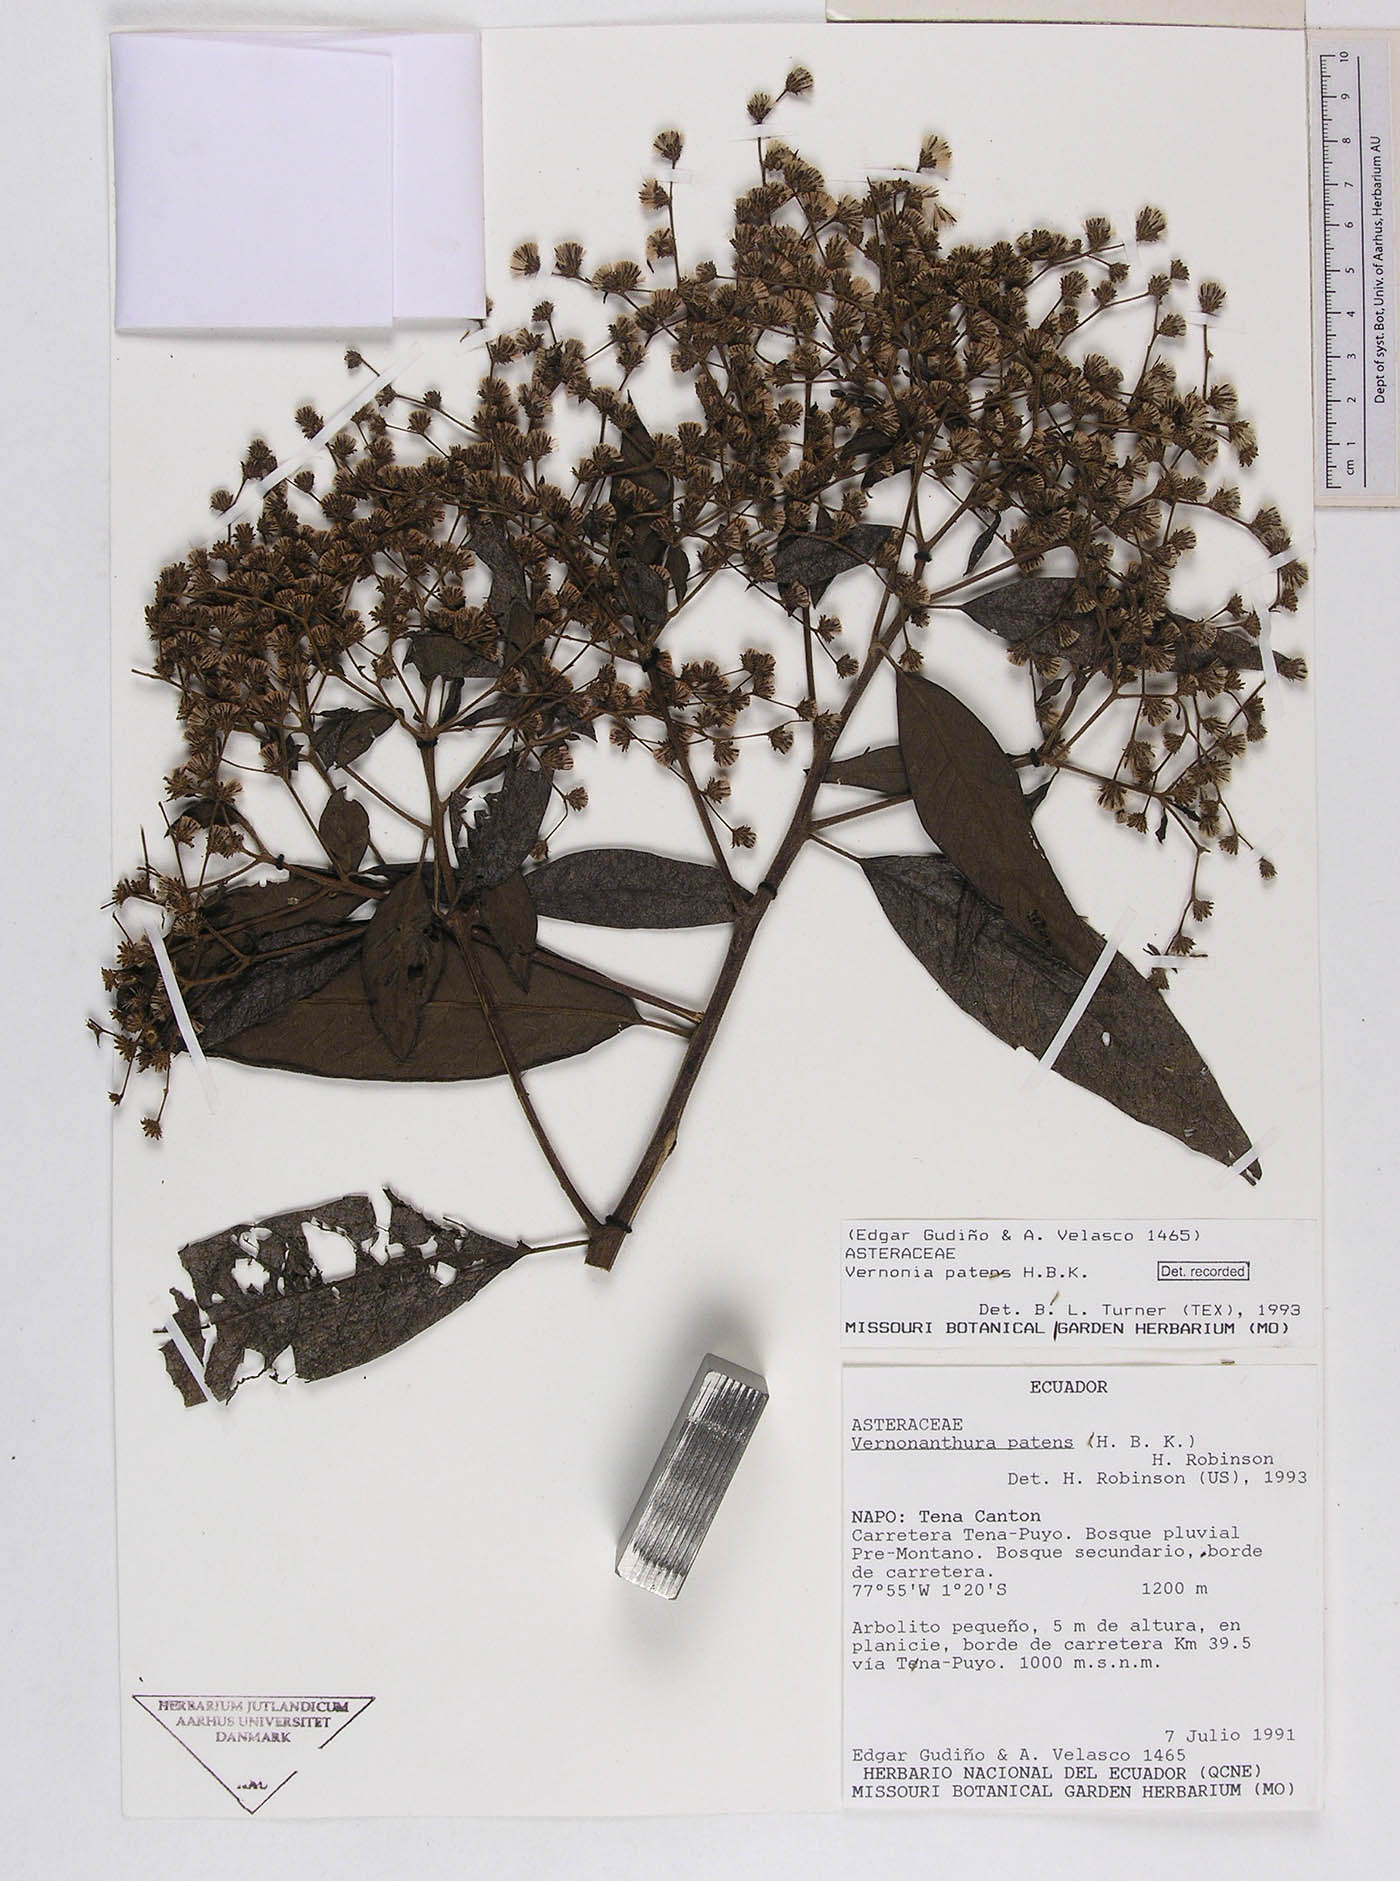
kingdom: Plantae
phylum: Tracheophyta
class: Magnoliopsida
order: Asterales
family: Asteraceae
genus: Vernonanthura
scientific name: Vernonanthura patens
